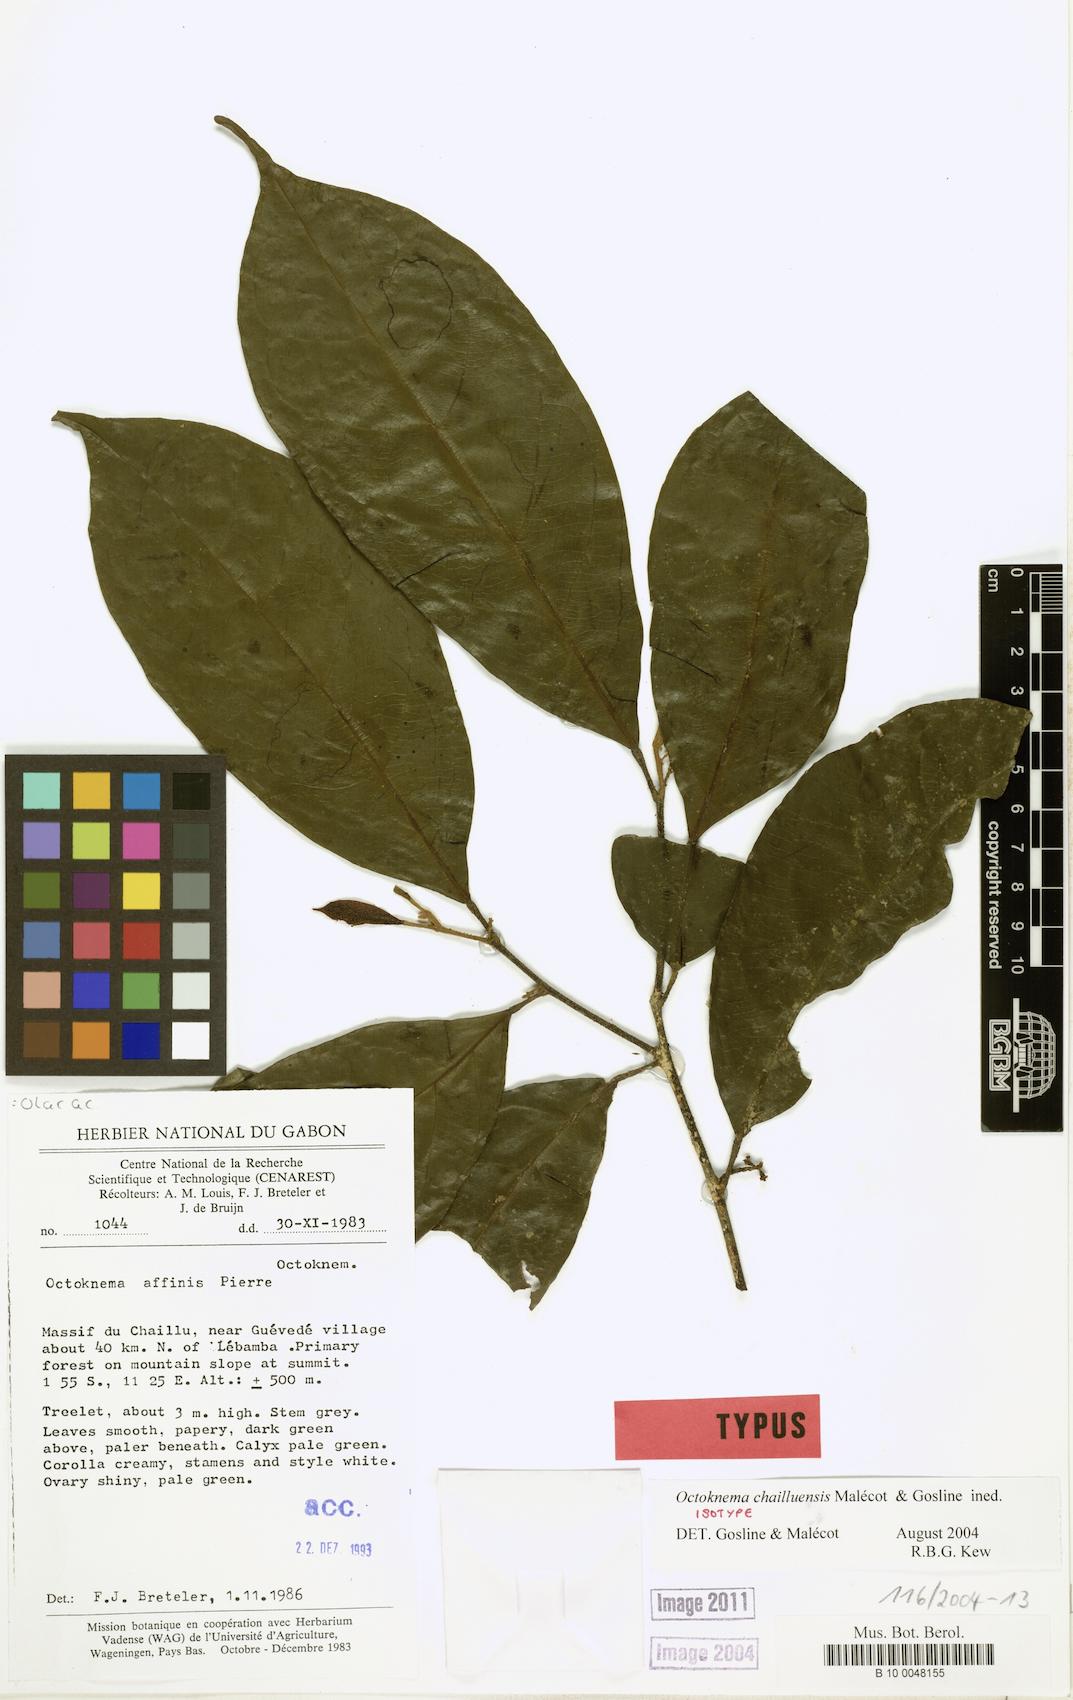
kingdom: Plantae
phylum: Tracheophyta
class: Magnoliopsida
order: Santalales
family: Octoknemaceae
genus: Octoknema
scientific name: Octoknema chailluensis
